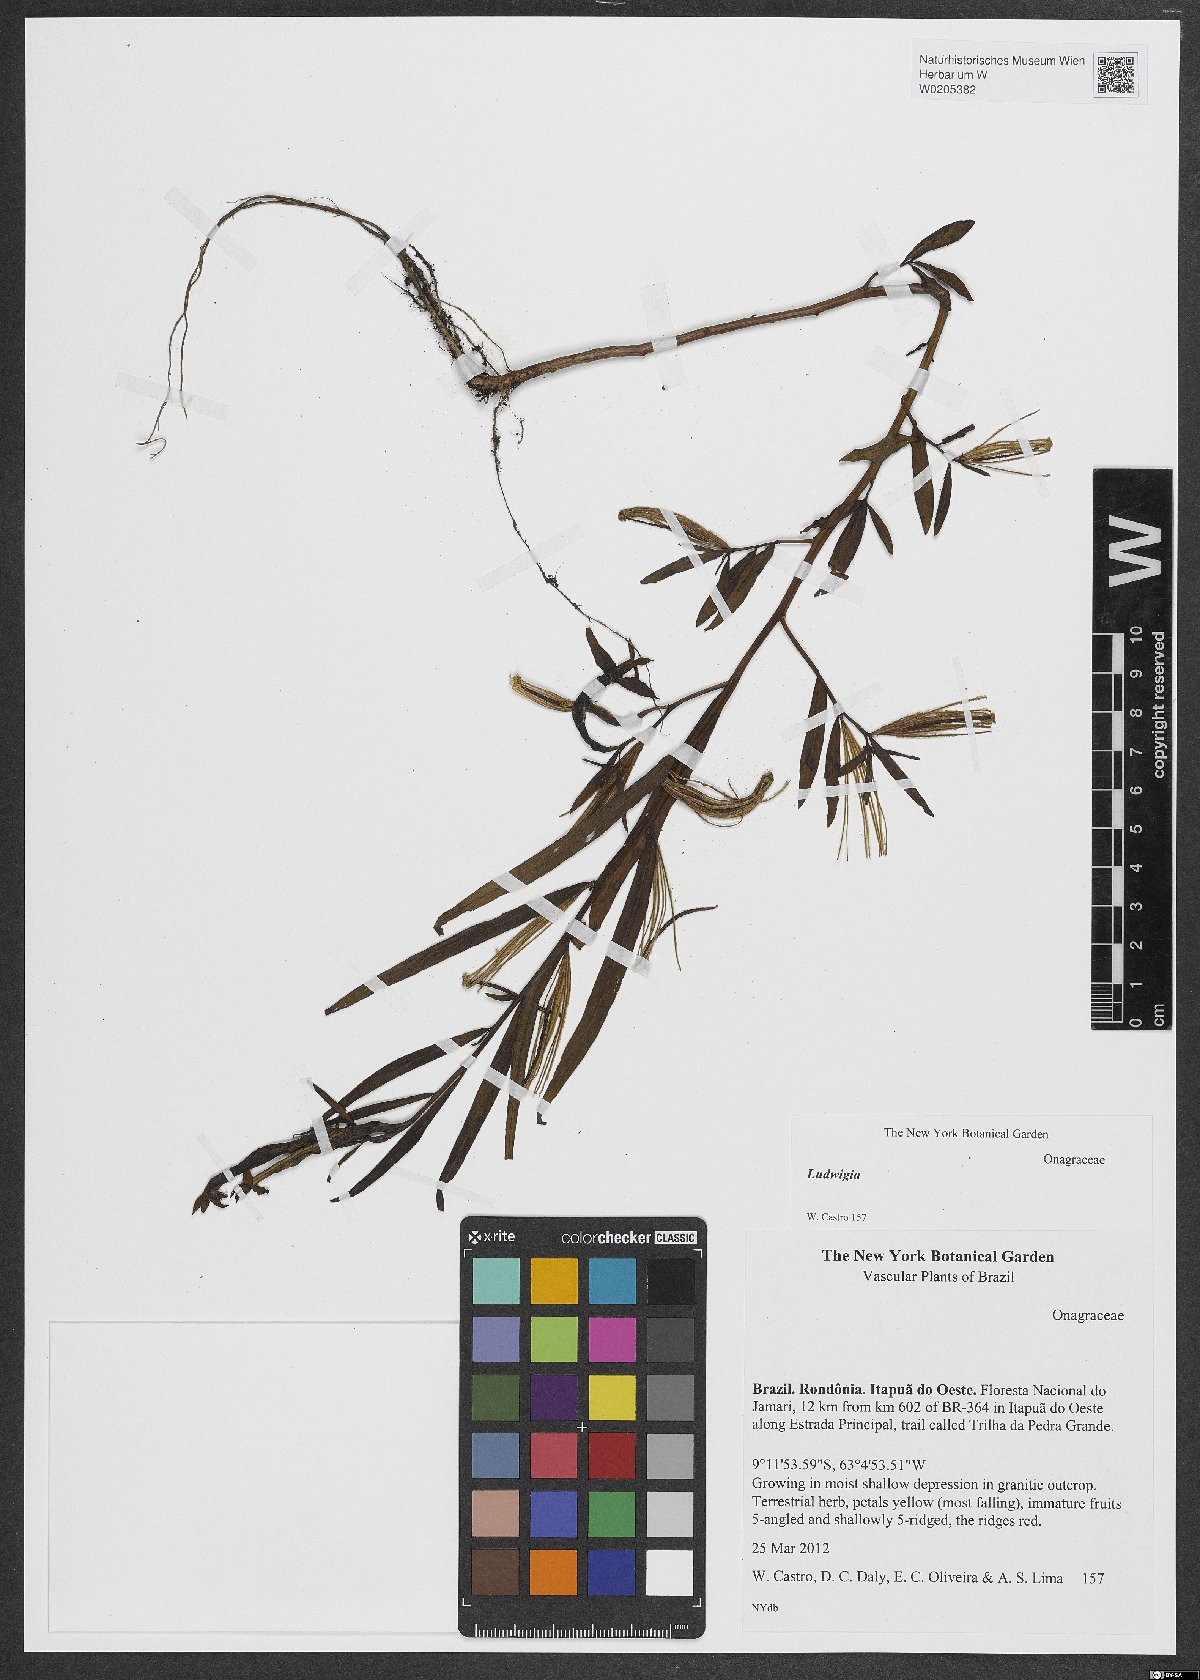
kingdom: Plantae
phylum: Tracheophyta
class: Magnoliopsida
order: Myrtales
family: Onagraceae
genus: Ludwigia
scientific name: Ludwigia
